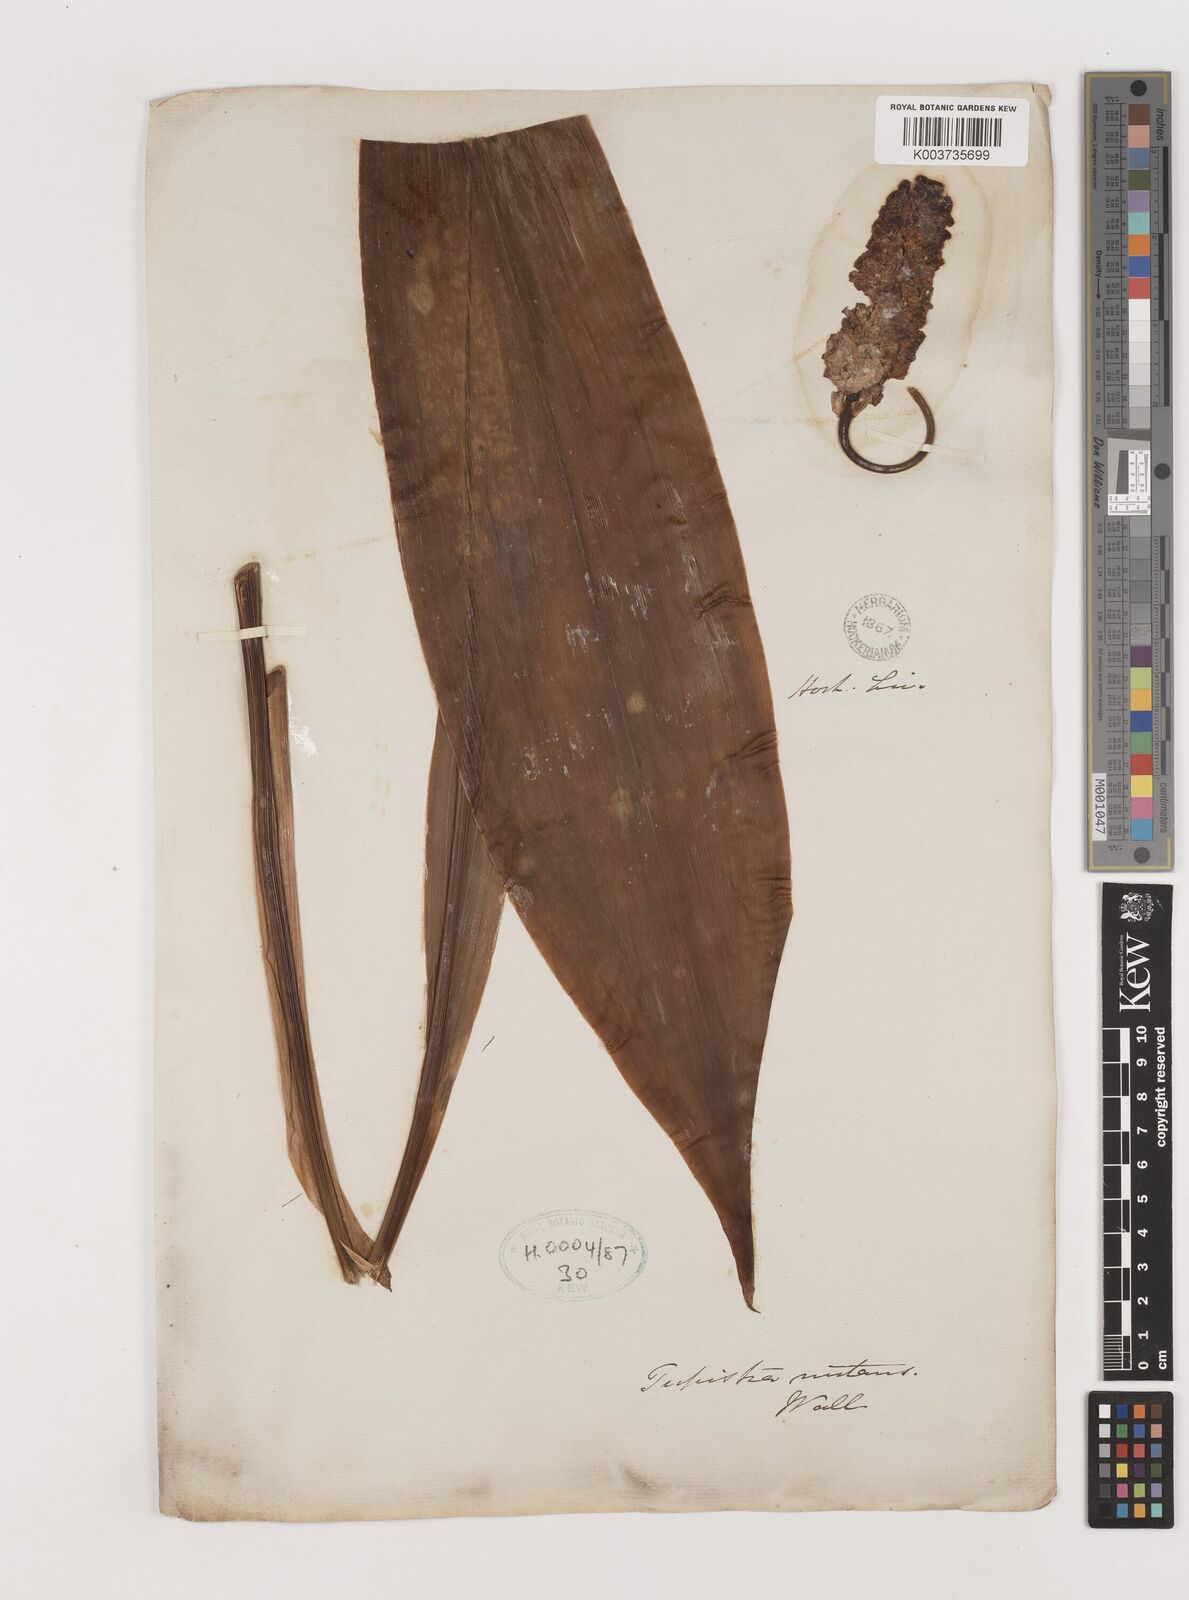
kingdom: Plantae
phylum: Tracheophyta
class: Liliopsida
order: Asparagales
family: Asparagaceae
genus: Tupistra
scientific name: Tupistra nutans
